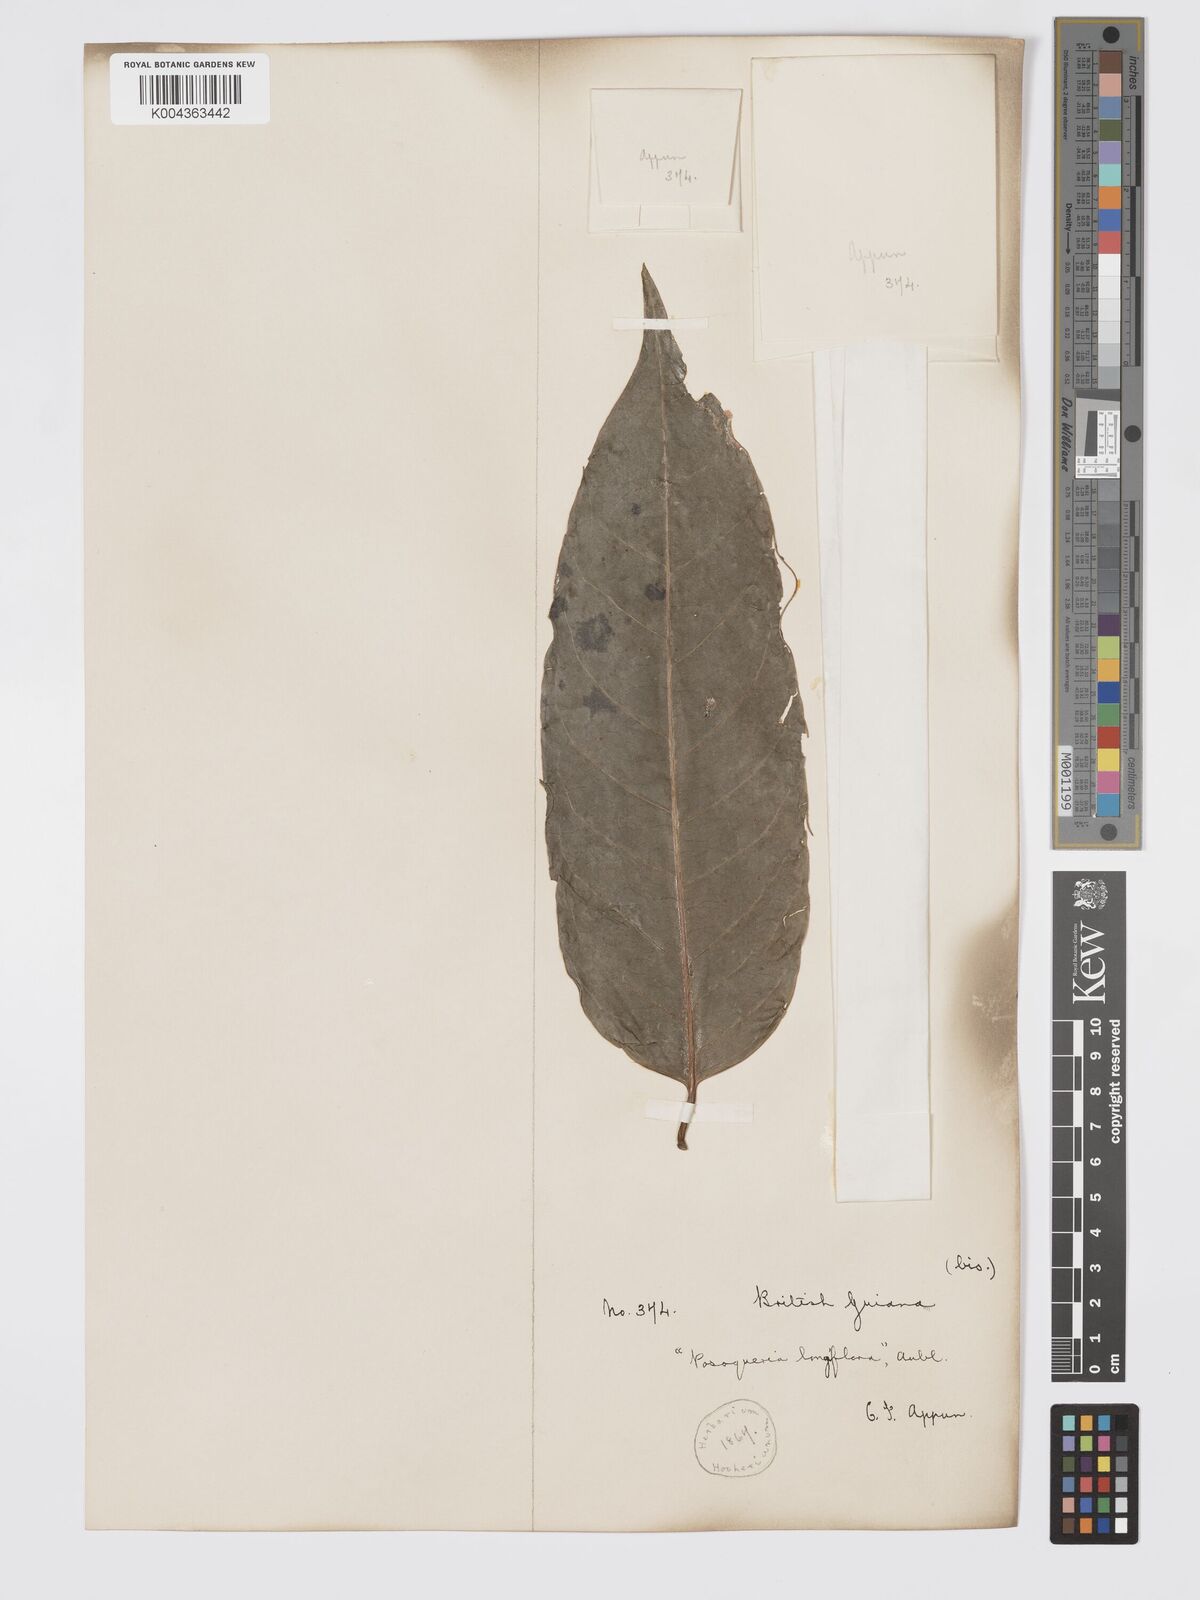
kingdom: Plantae
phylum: Tracheophyta
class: Magnoliopsida
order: Gentianales
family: Rubiaceae
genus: Posoqueria
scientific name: Posoqueria
